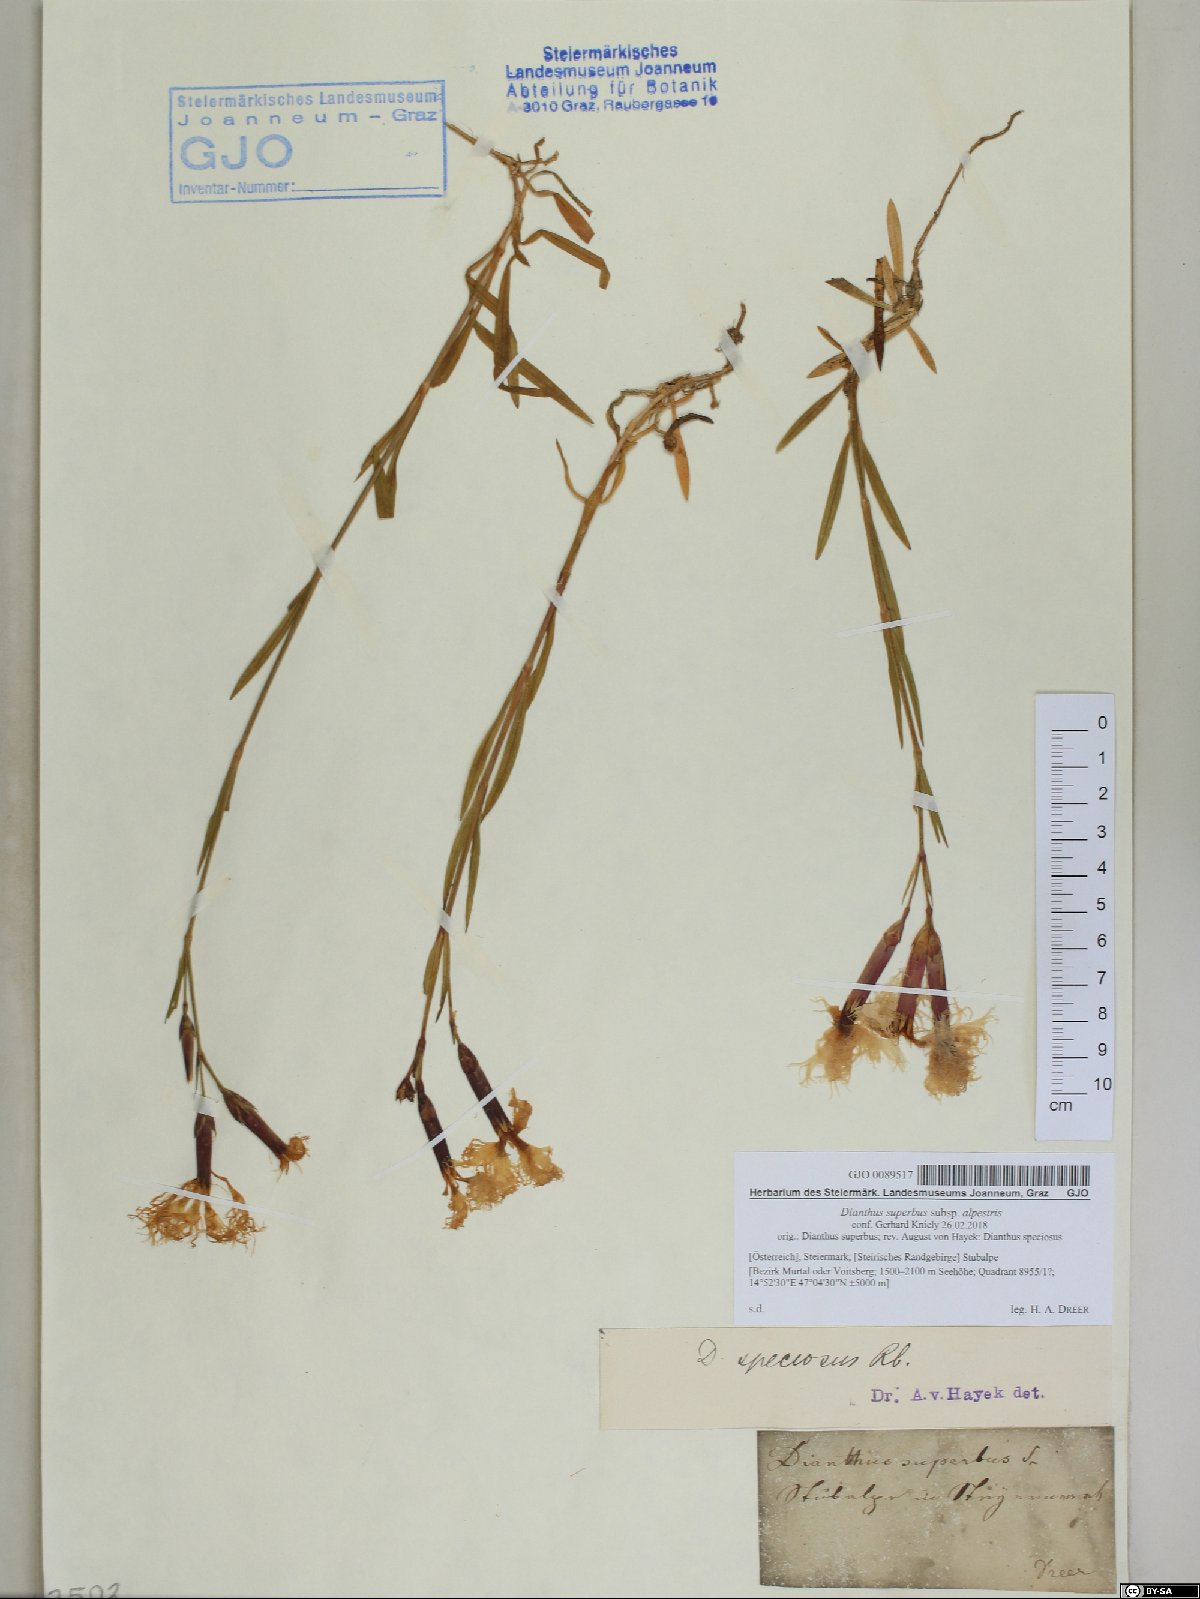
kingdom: Plantae
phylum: Tracheophyta
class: Magnoliopsida
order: Caryophyllales
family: Caryophyllaceae
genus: Dianthus
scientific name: Dianthus superbus
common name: Fringed pink
